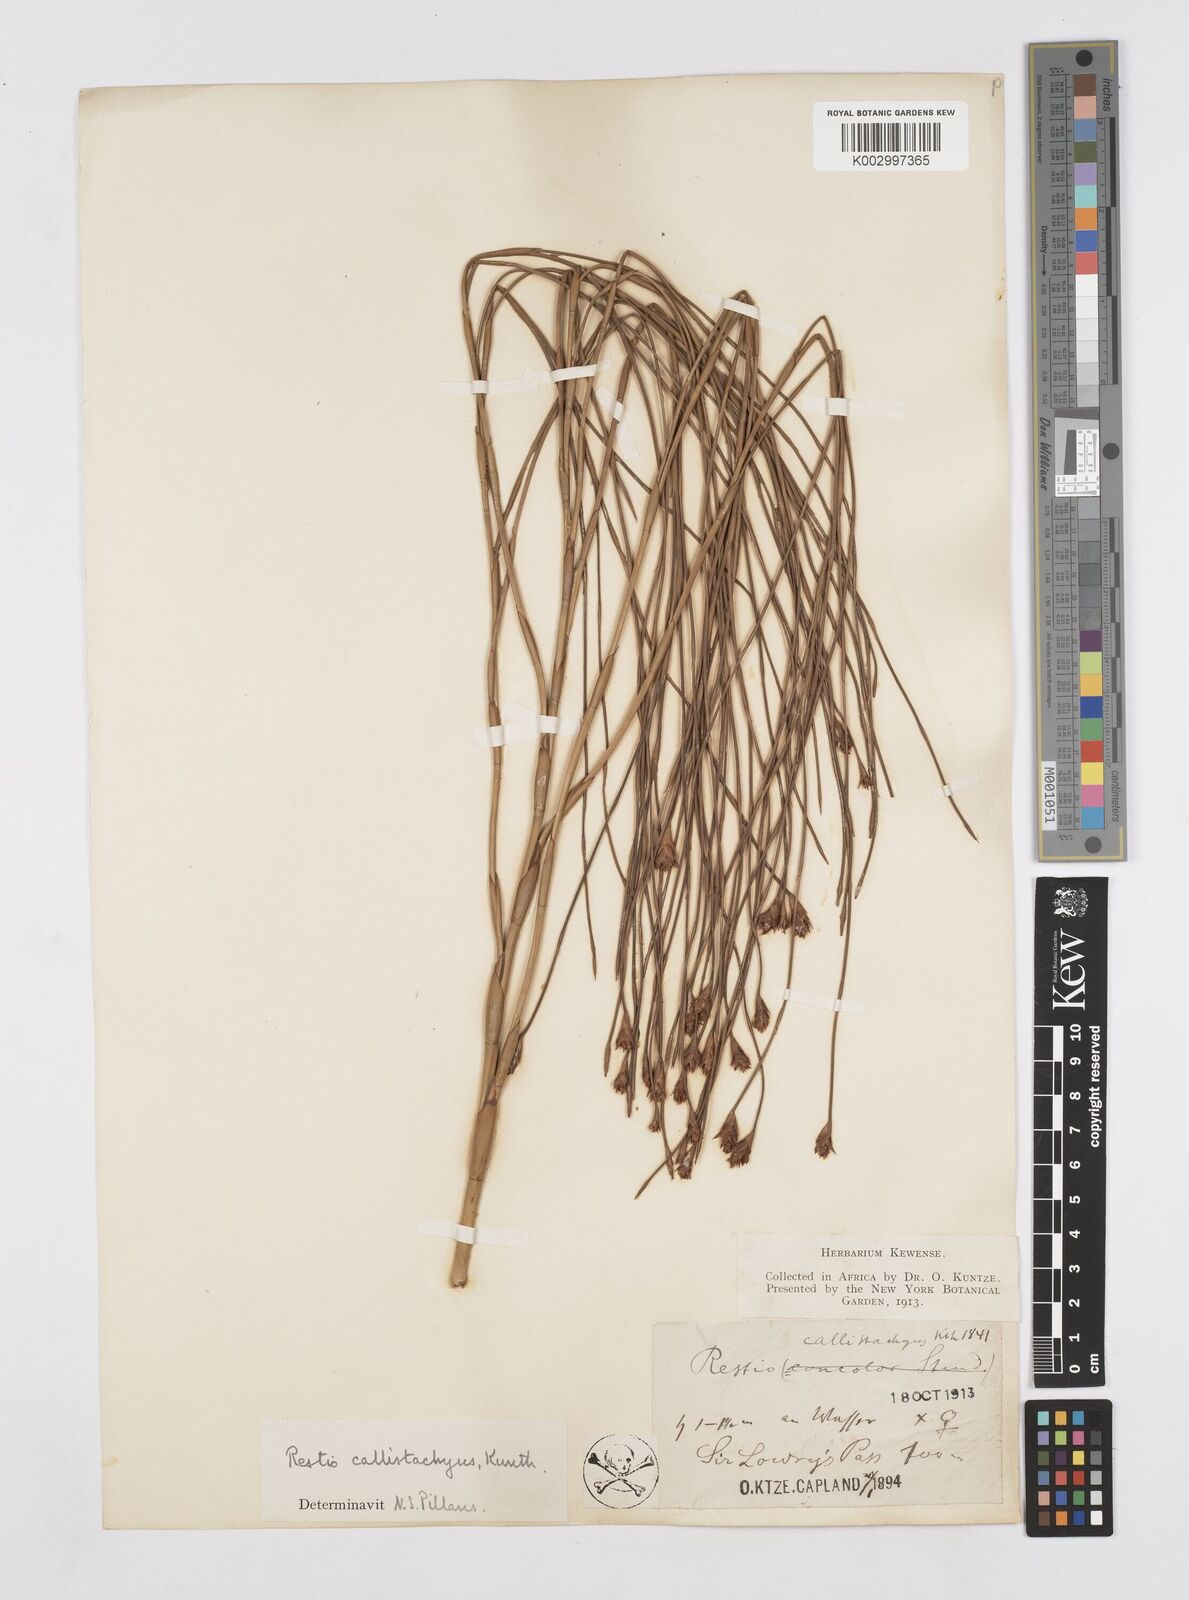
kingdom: Plantae
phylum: Tracheophyta
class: Liliopsida
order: Poales
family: Restionaceae
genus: Platycaulos
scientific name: Platycaulos callistachyus
